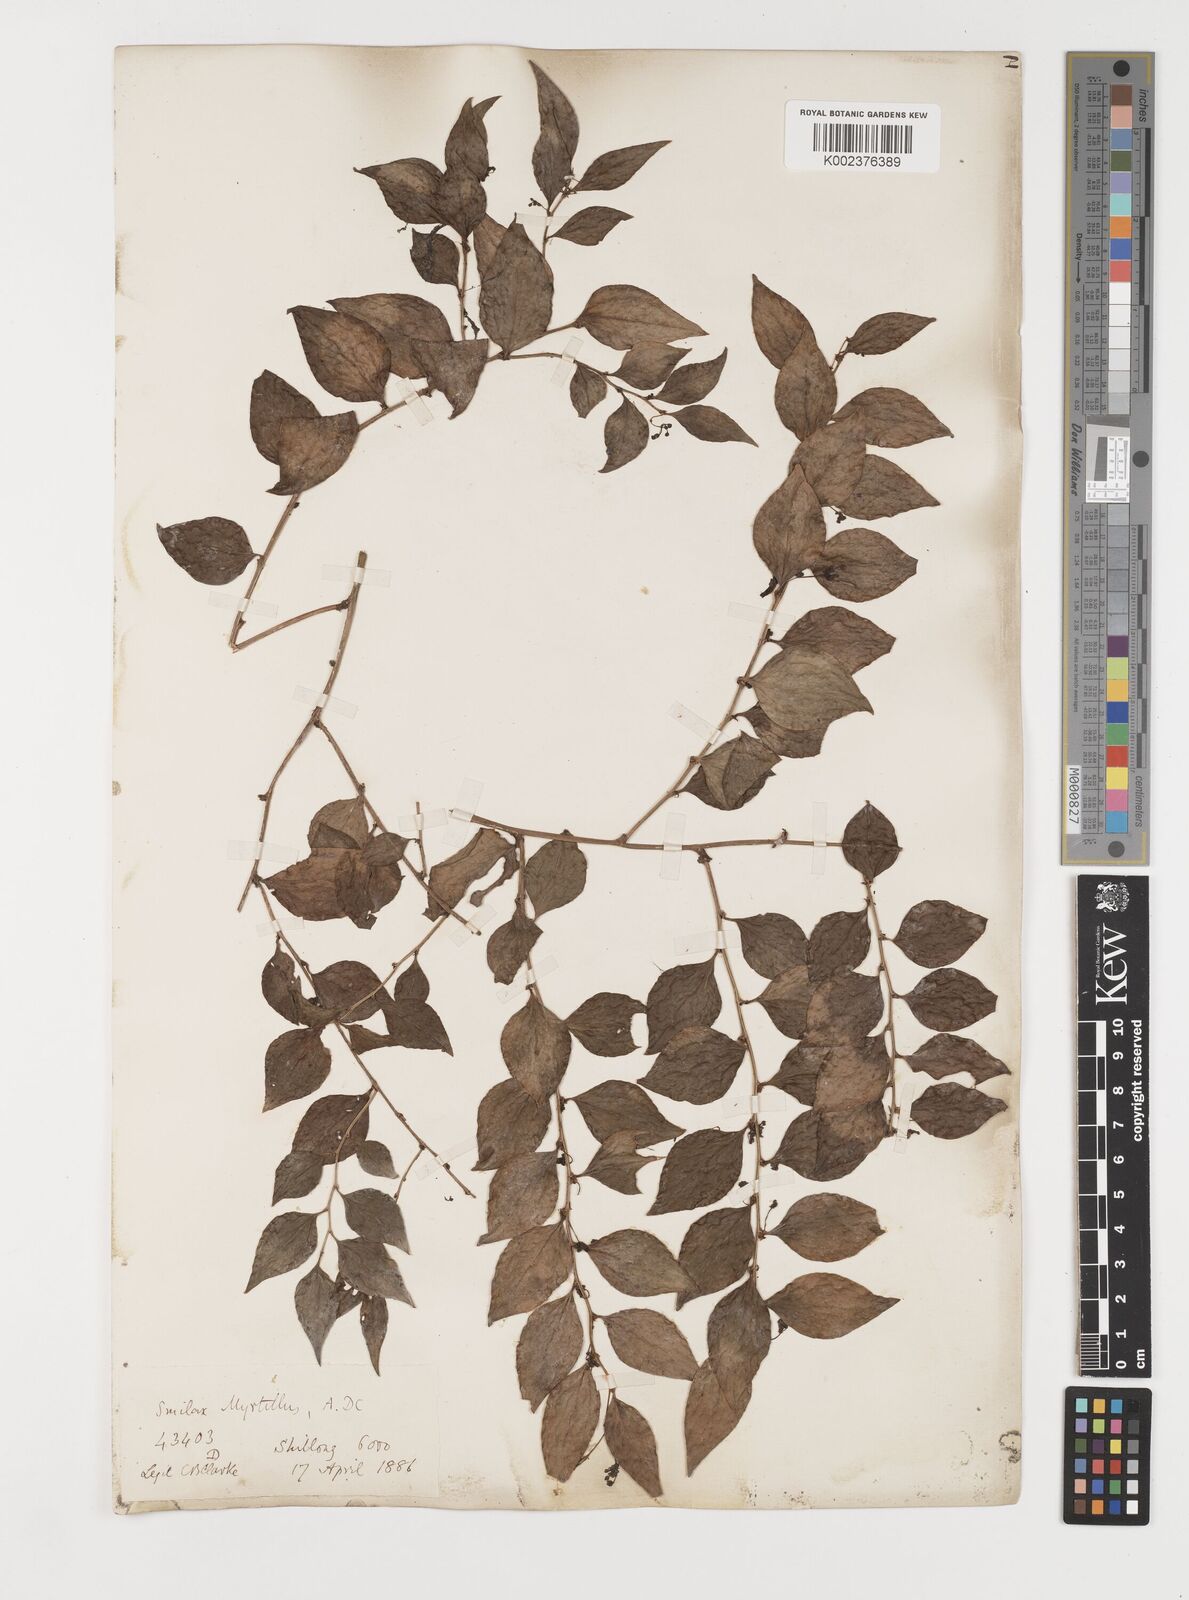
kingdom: Plantae
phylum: Tracheophyta
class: Liliopsida
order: Liliales
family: Smilacaceae
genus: Smilax
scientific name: Smilax myrtillus
